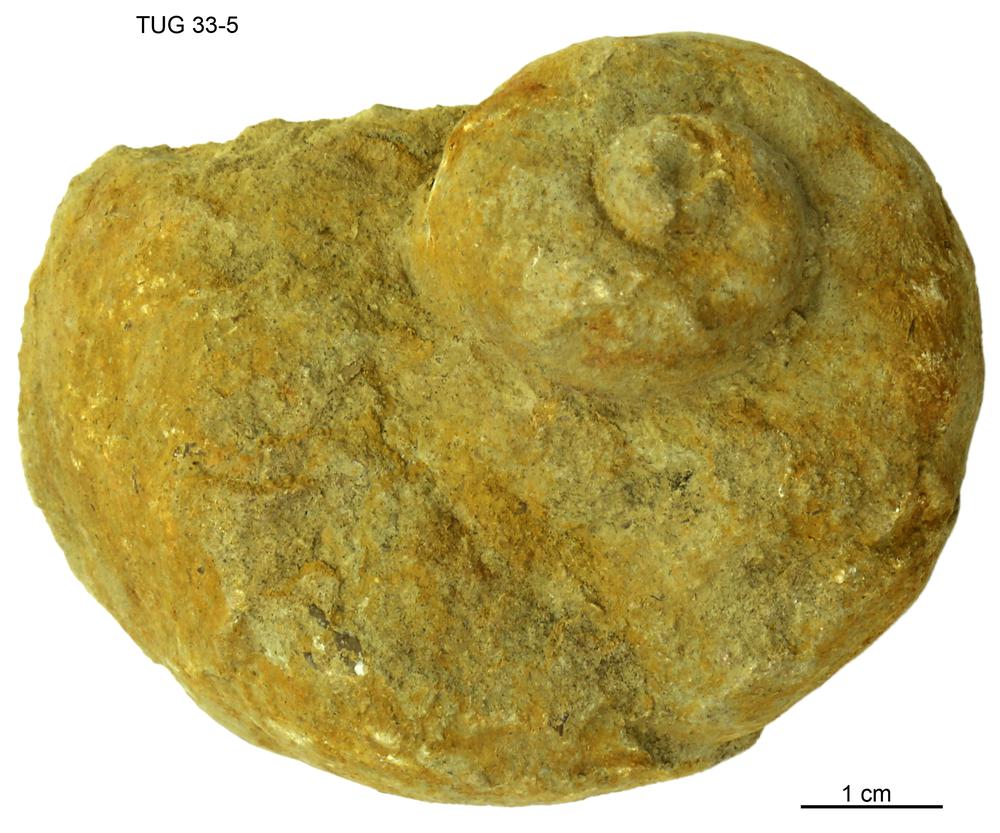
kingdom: Animalia
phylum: Mollusca
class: Gastropoda
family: Holopeidae
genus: Holopea
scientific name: Holopea ampullacea
